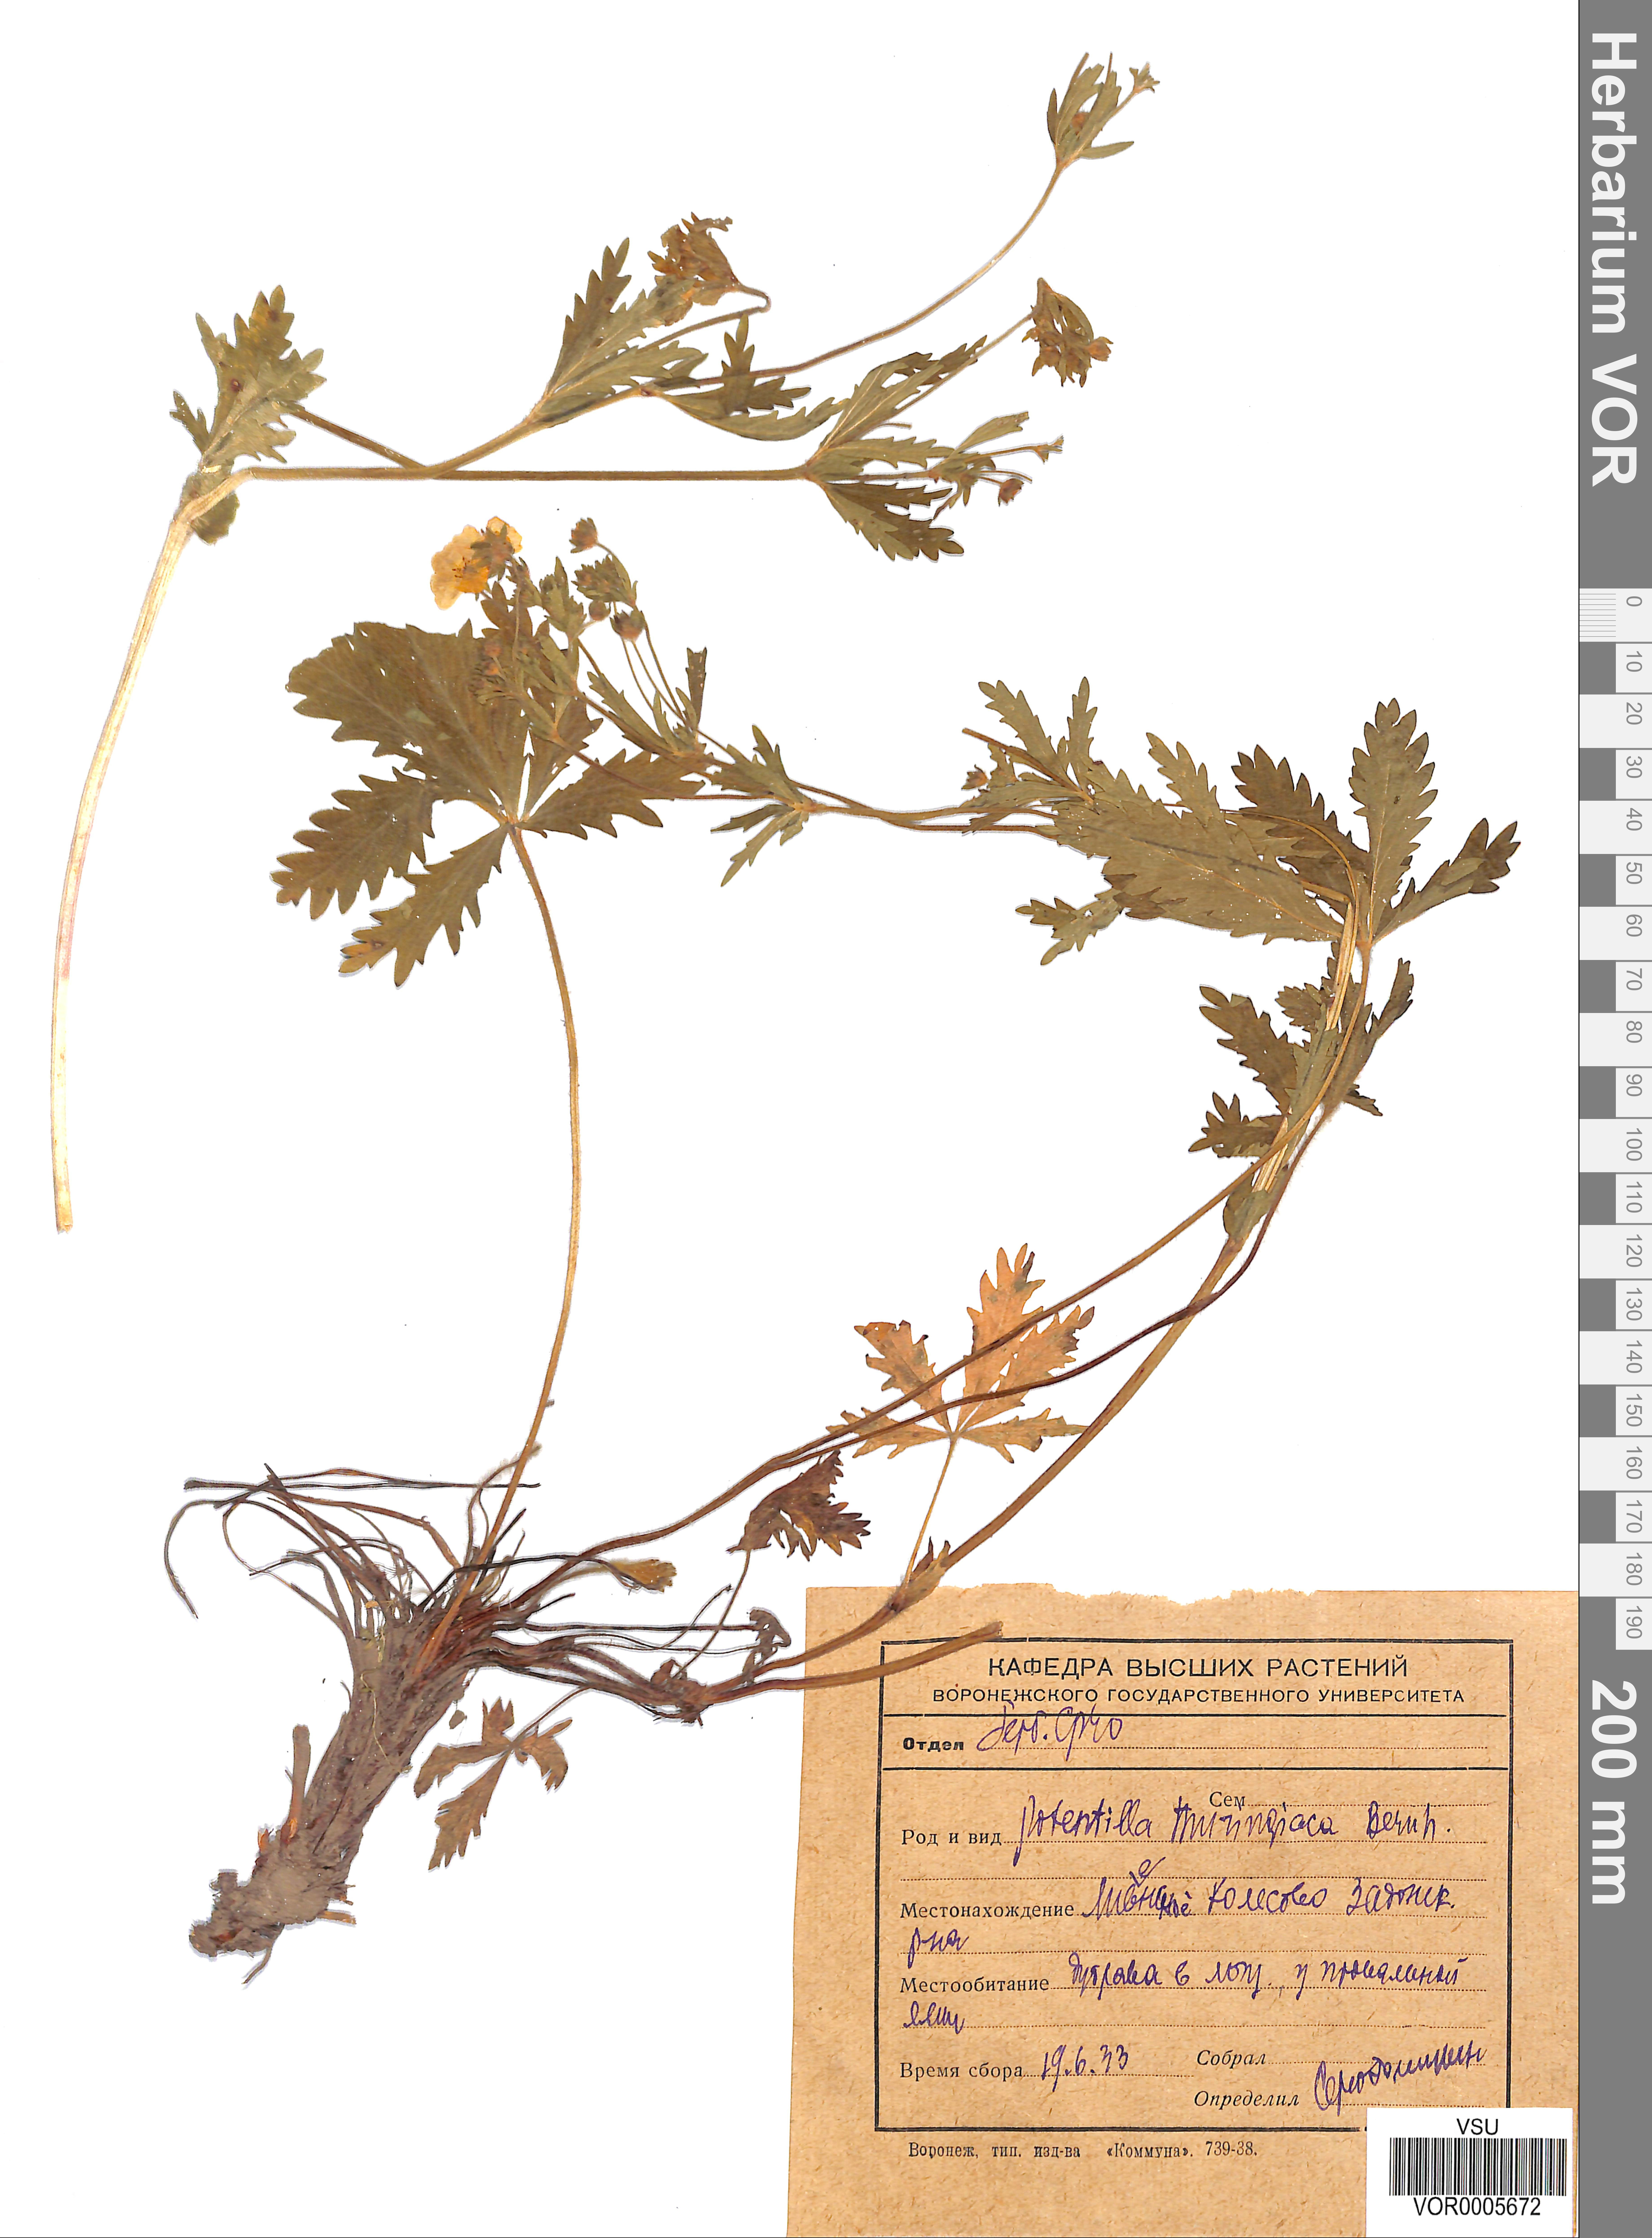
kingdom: Plantae
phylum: Tracheophyta
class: Magnoliopsida
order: Rosales
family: Rosaceae
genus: Potentilla
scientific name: Potentilla thuringiaca
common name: European cinquefoil
